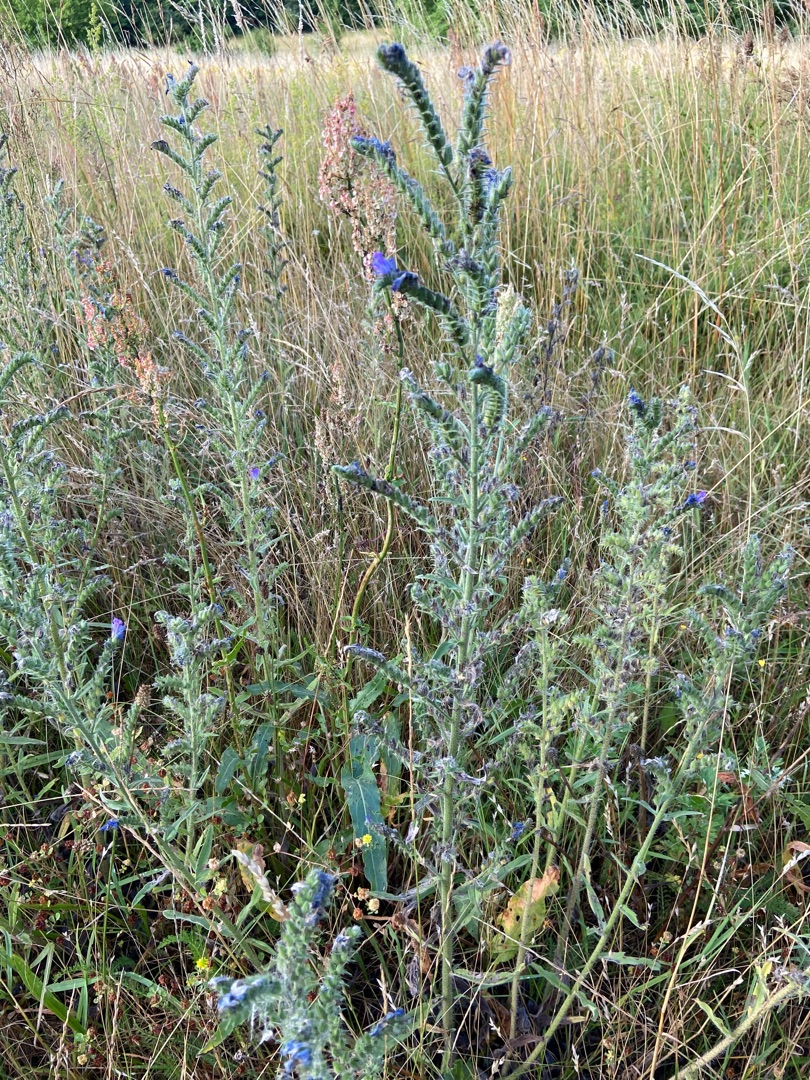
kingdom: Plantae
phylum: Tracheophyta
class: Magnoliopsida
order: Boraginales
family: Boraginaceae
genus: Echium
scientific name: Echium vulgare
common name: Slangehoved
